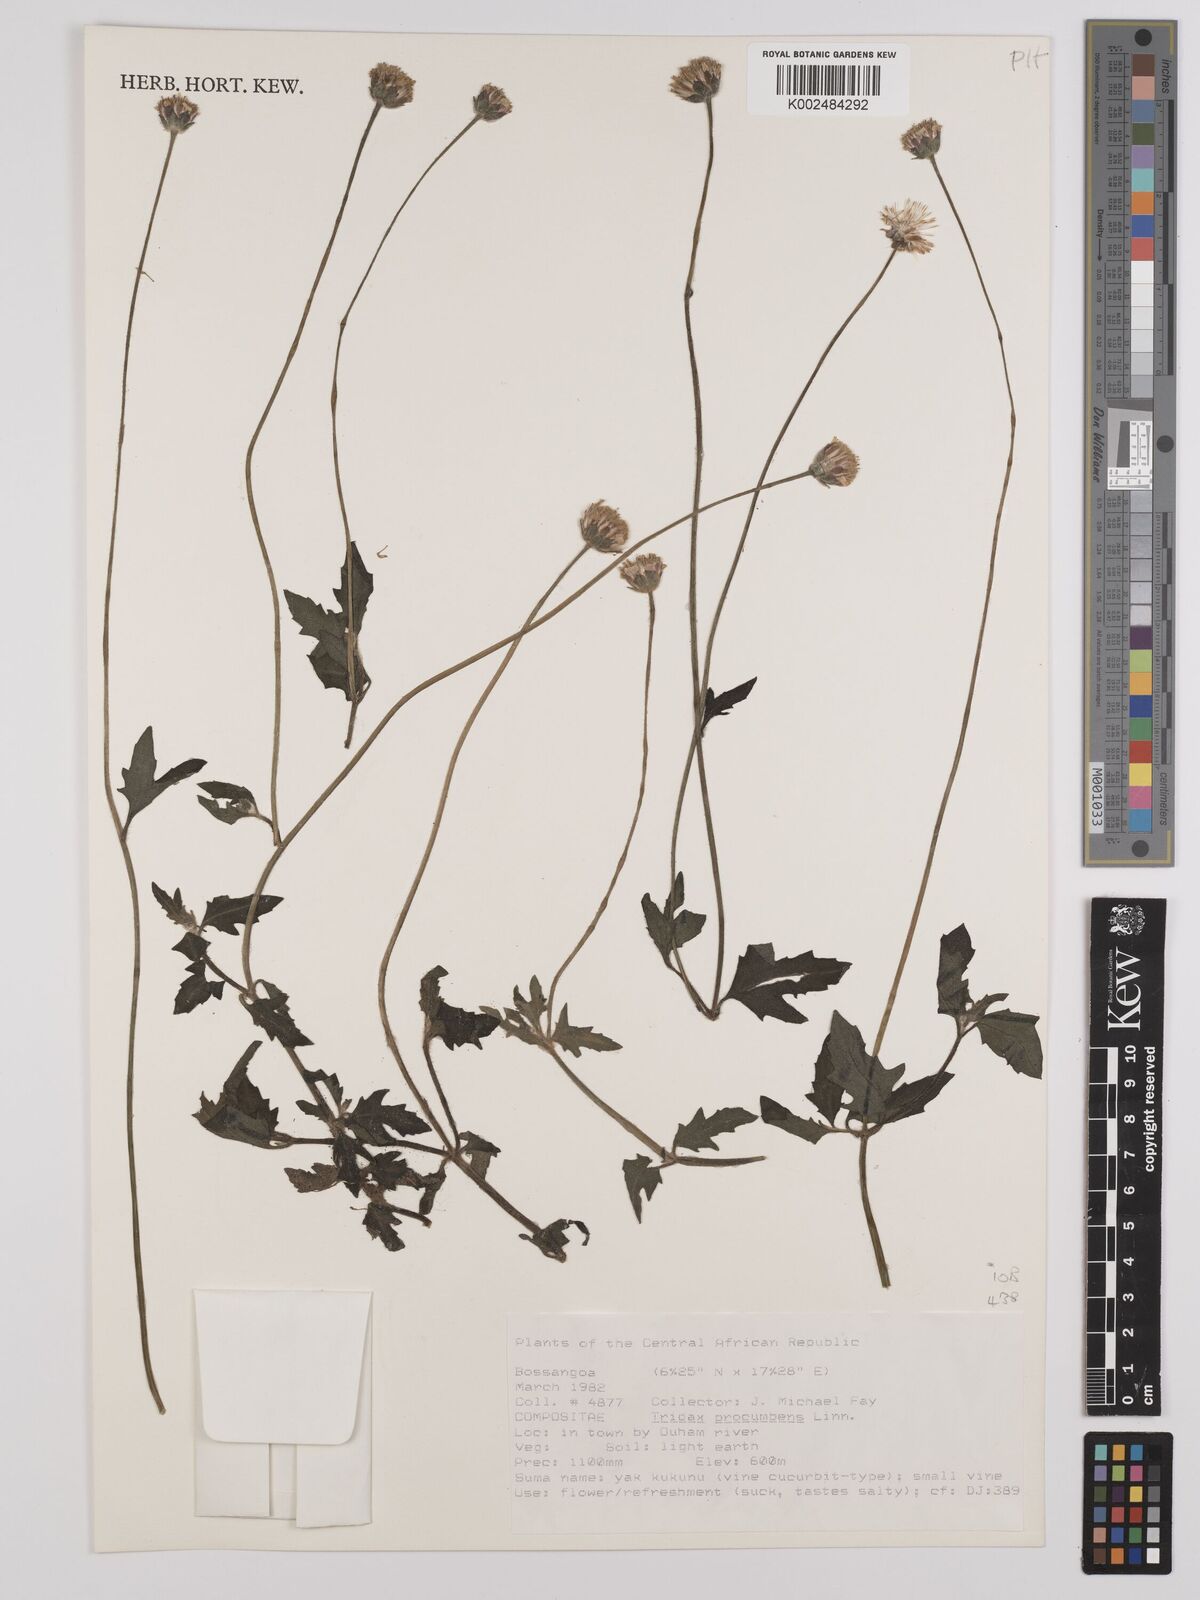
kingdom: Plantae
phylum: Tracheophyta
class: Magnoliopsida
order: Asterales
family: Asteraceae
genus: Tridax
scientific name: Tridax procumbens
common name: Coatbuttons
